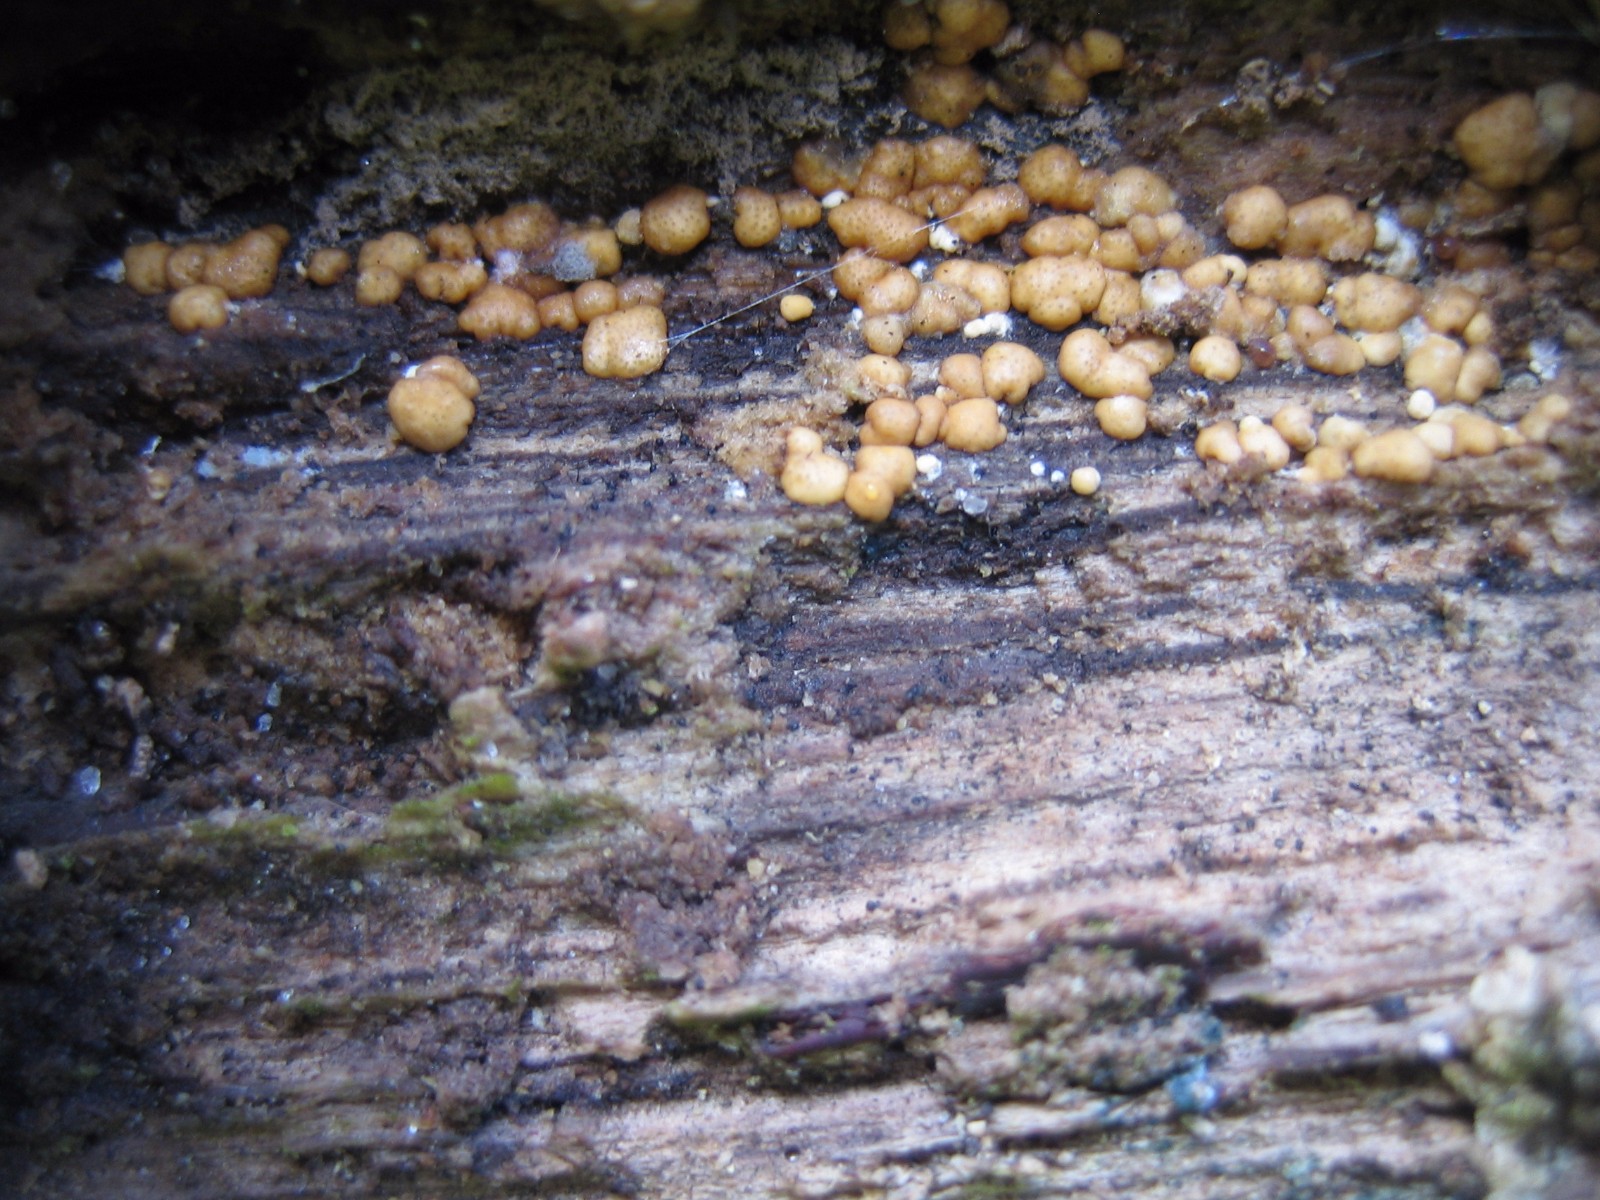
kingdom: Fungi
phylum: Ascomycota
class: Sordariomycetes
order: Hypocreales
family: Hypocreaceae
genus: Trichoderma
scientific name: Trichoderma
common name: kødkerne
